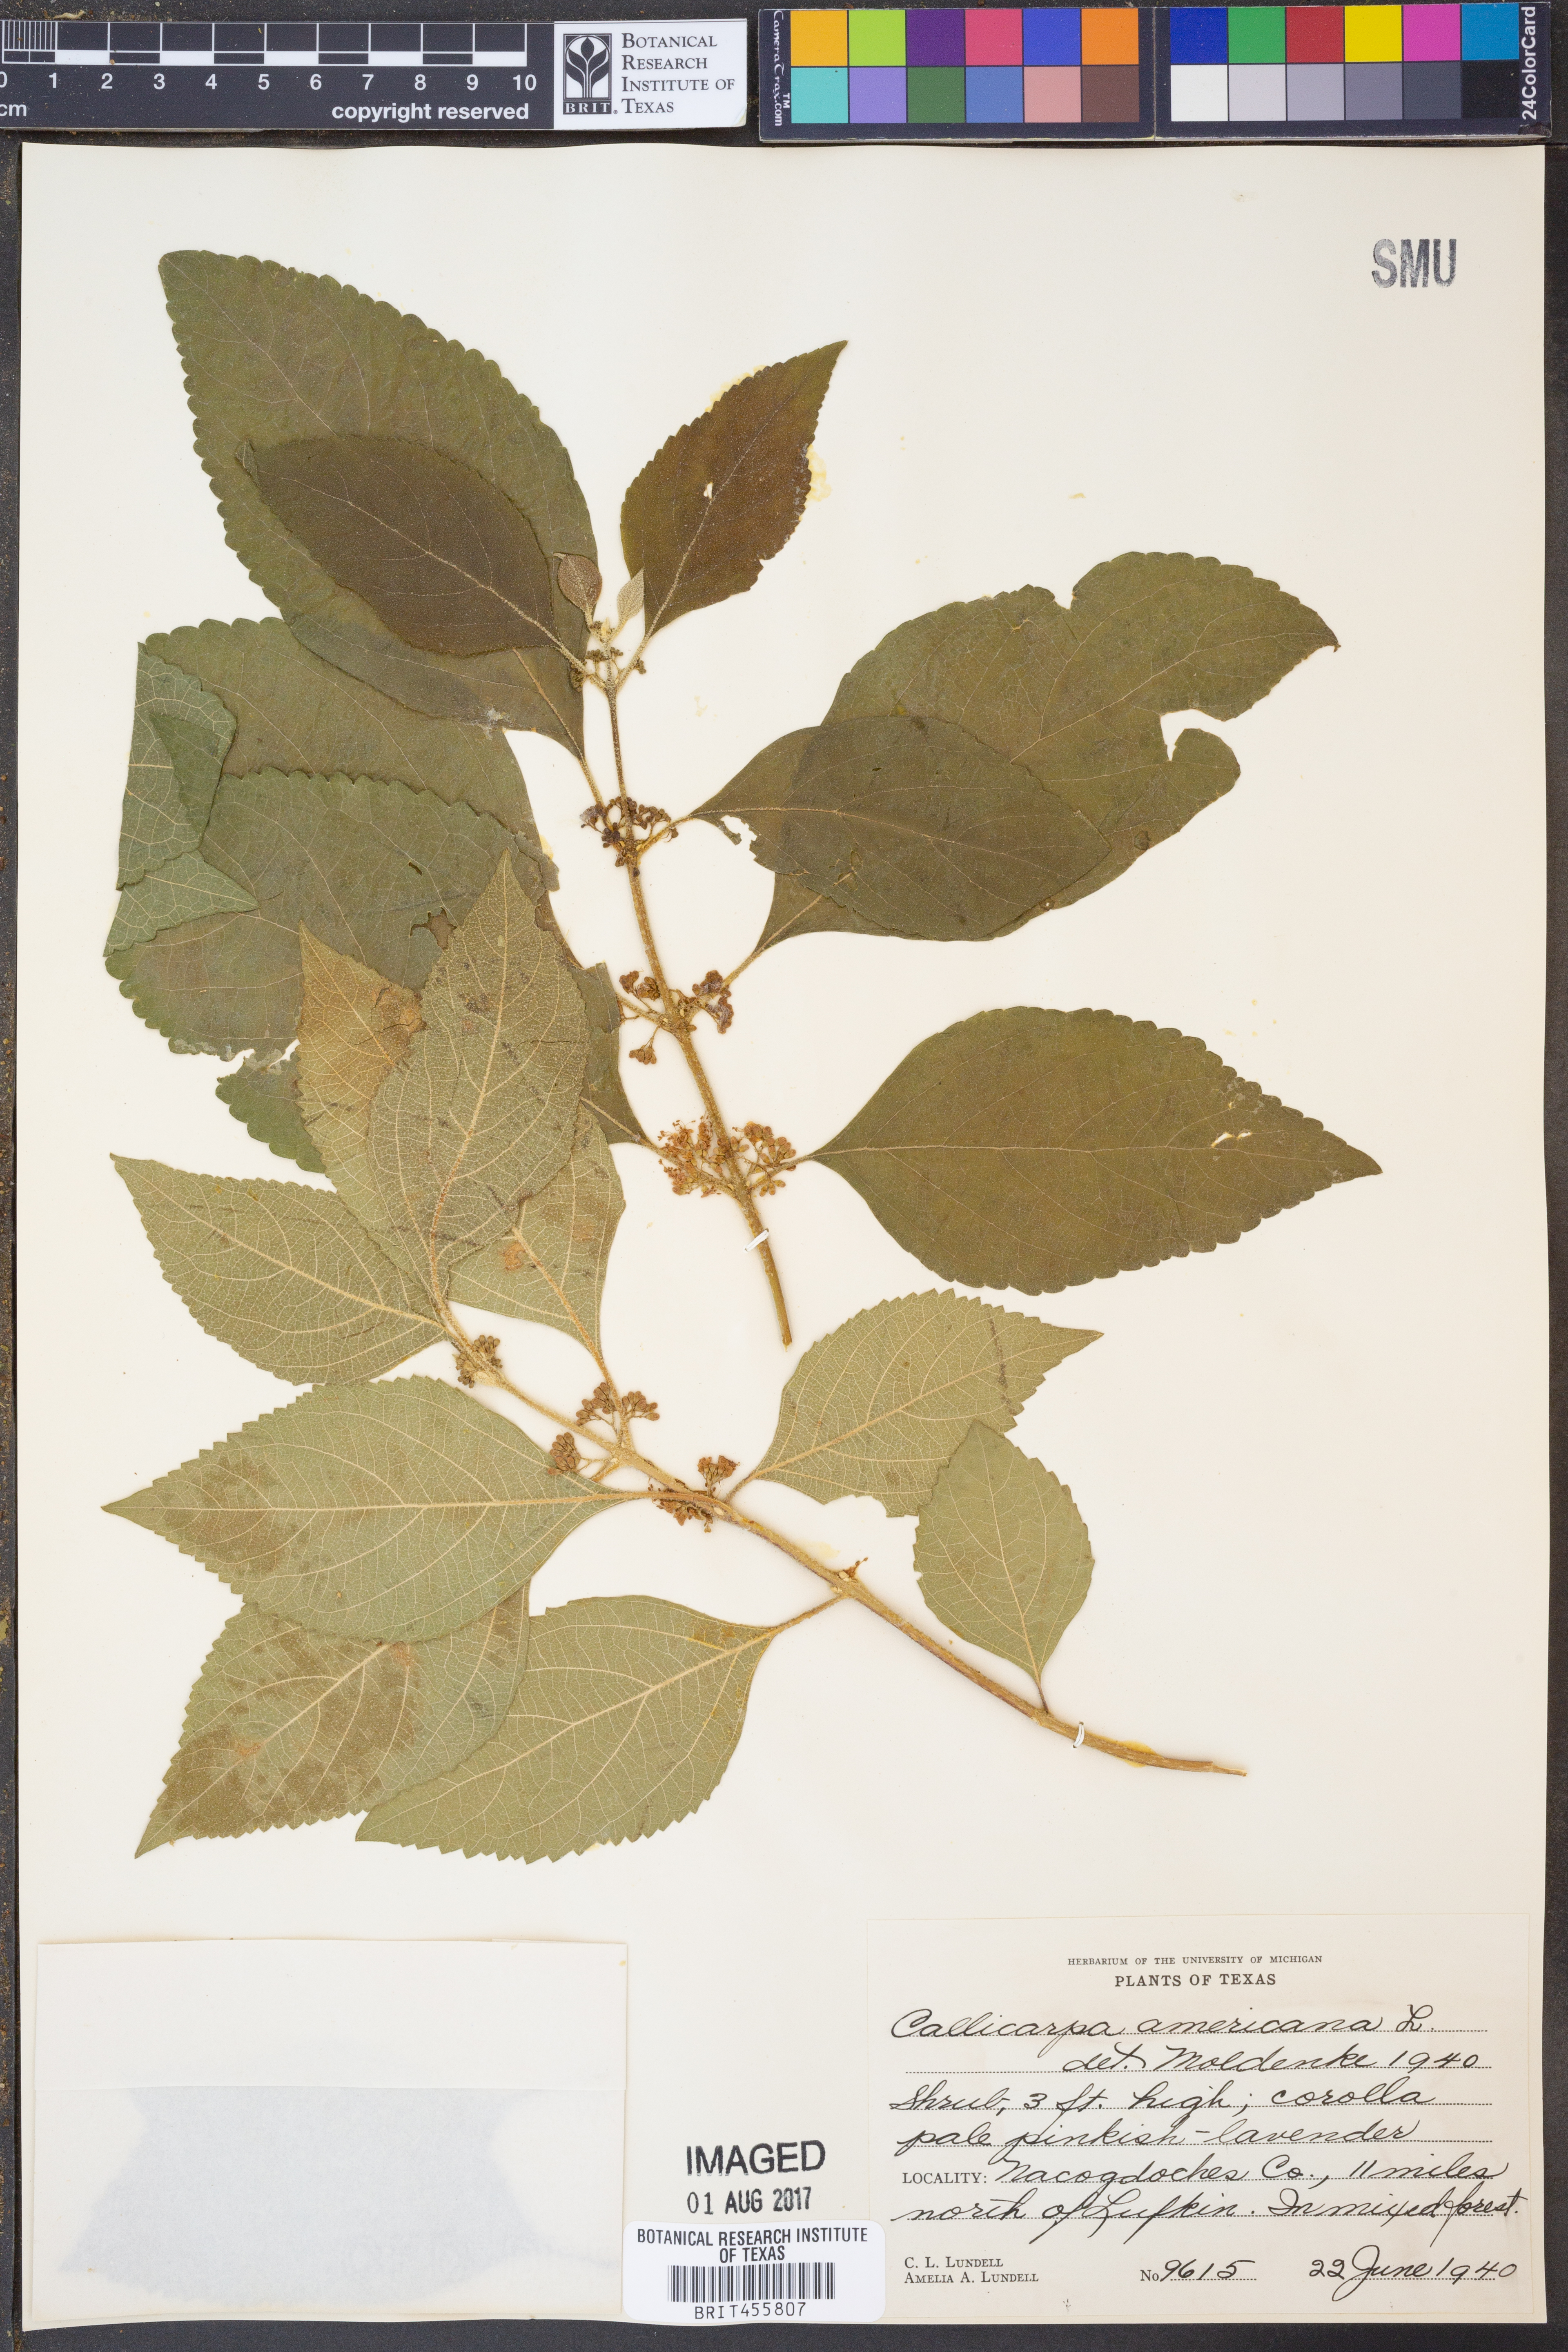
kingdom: Plantae
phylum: Tracheophyta
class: Magnoliopsida
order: Lamiales
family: Lamiaceae
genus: Callicarpa
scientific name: Callicarpa americana
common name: American beautyberry
